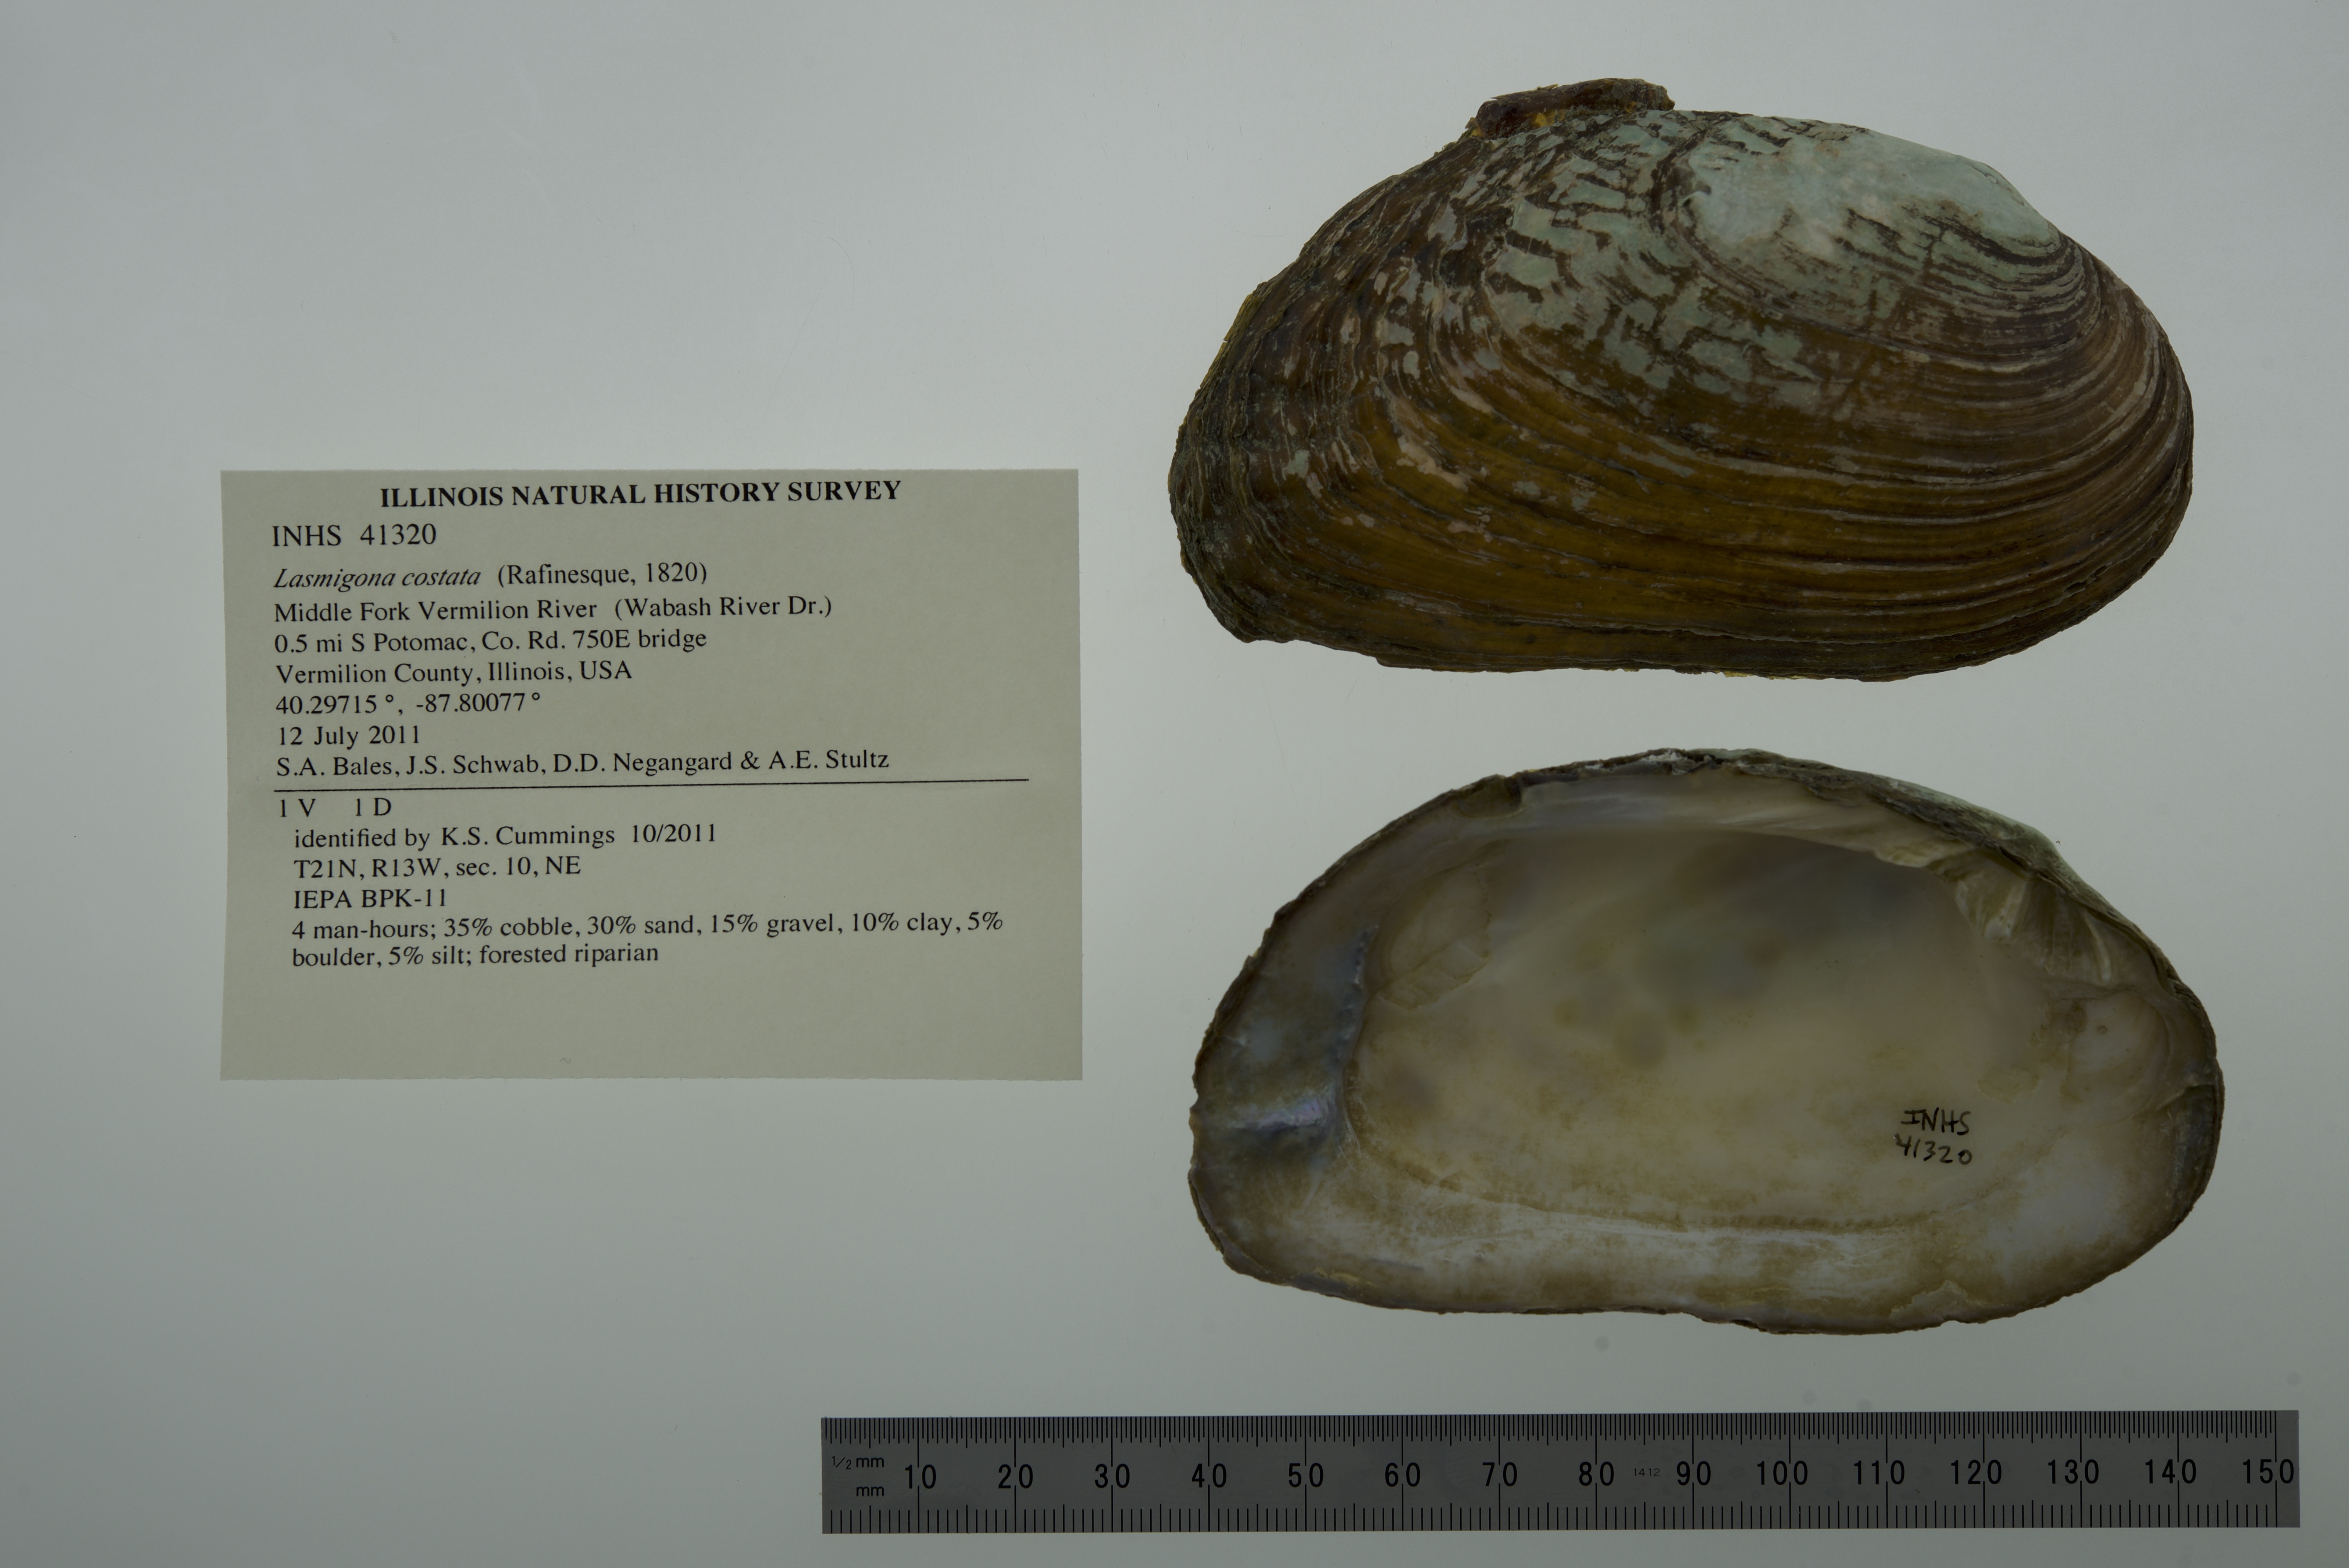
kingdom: Animalia
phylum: Mollusca
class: Bivalvia
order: Unionida
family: Unionidae
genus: Lasmigona
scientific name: Lasmigona costata
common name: Flutedshell
